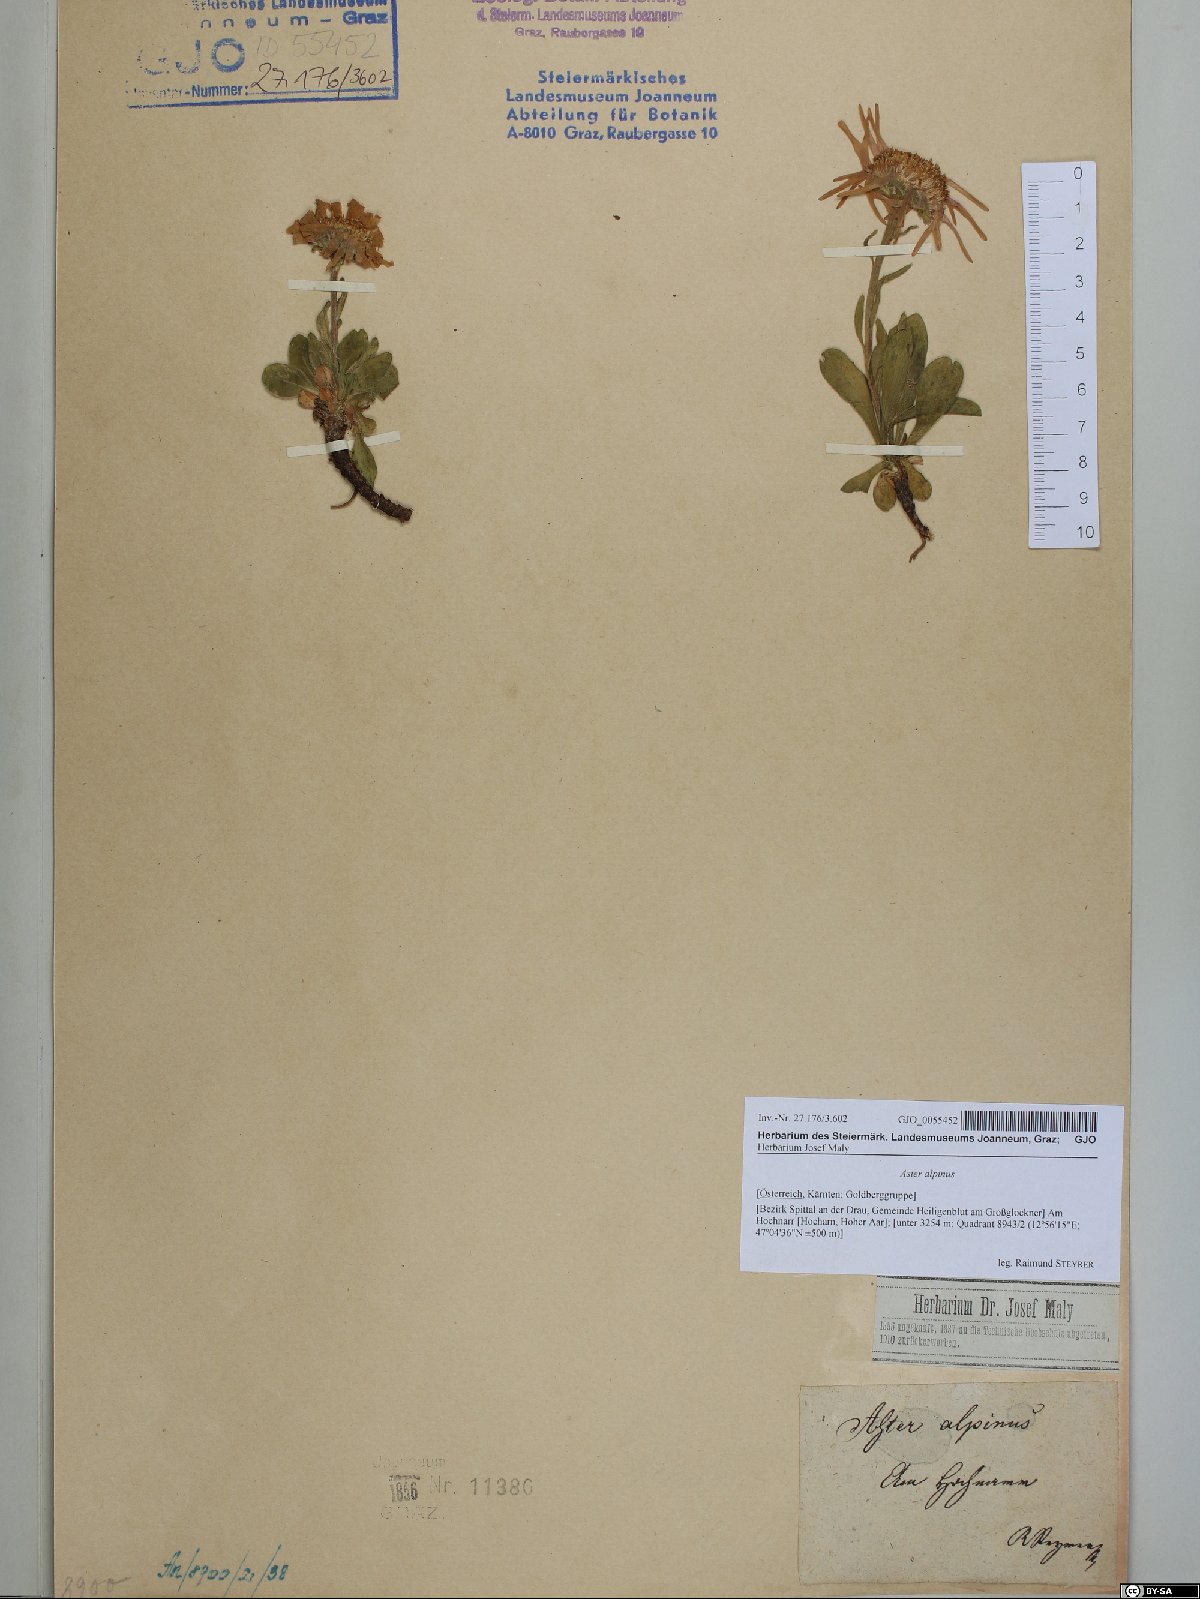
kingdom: Plantae
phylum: Tracheophyta
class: Magnoliopsida
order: Asterales
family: Asteraceae
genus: Aster
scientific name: Aster alpinus
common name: Alpine aster
